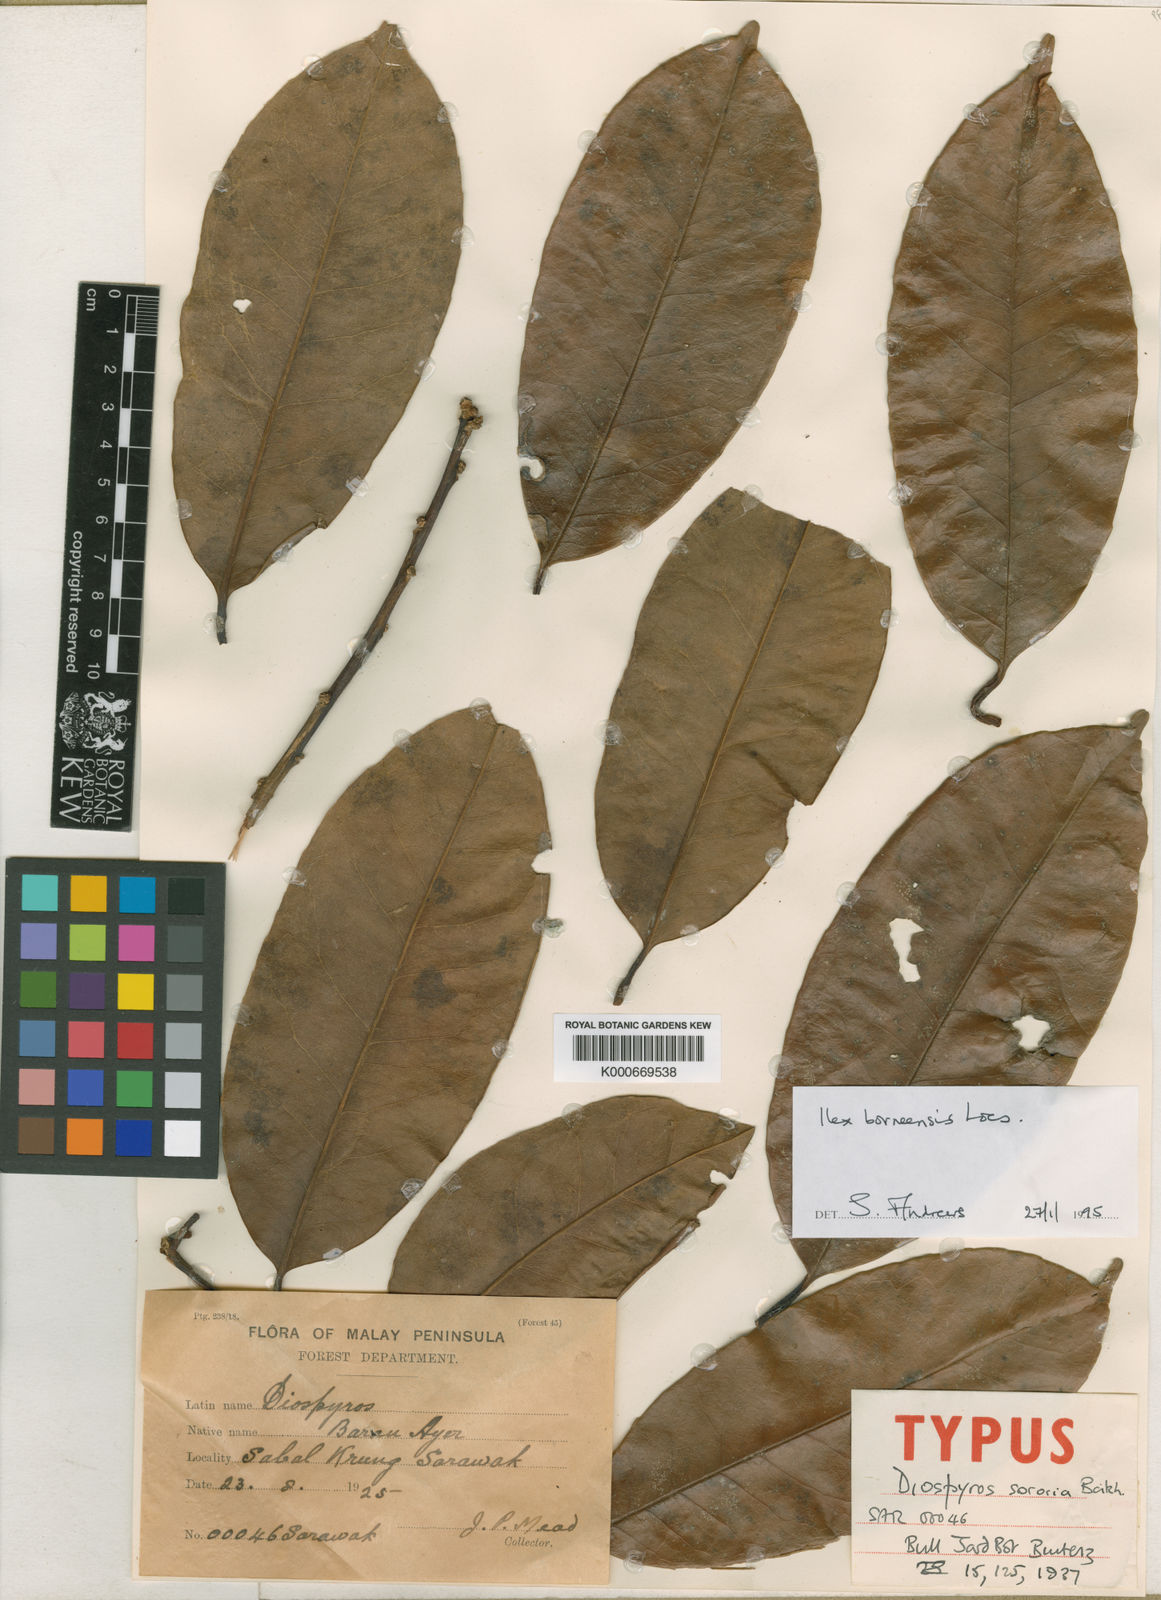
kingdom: Plantae
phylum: Tracheophyta
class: Magnoliopsida
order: Aquifoliales
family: Aquifoliaceae
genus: Ilex
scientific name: Ilex borneensis
